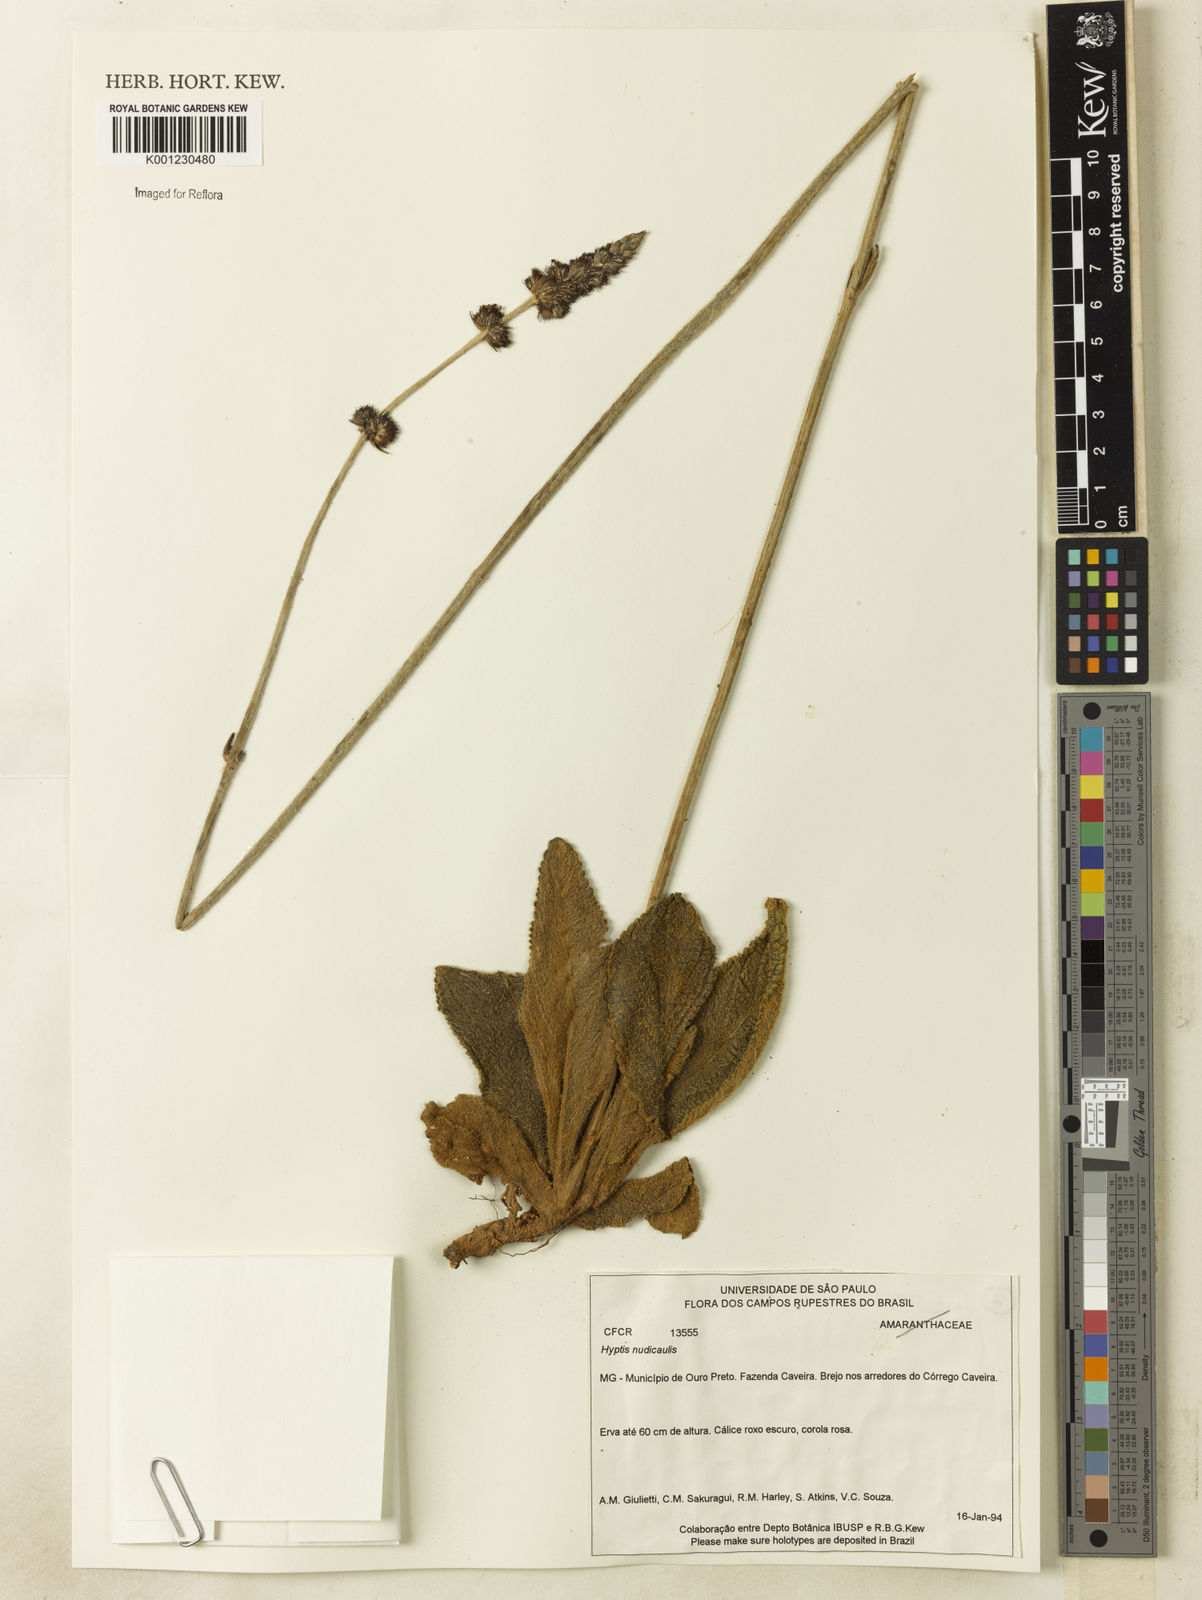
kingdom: Plantae
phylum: Tracheophyta
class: Magnoliopsida
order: Lamiales
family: Lamiaceae
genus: Hyptis
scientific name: Hyptis nudicaulis
